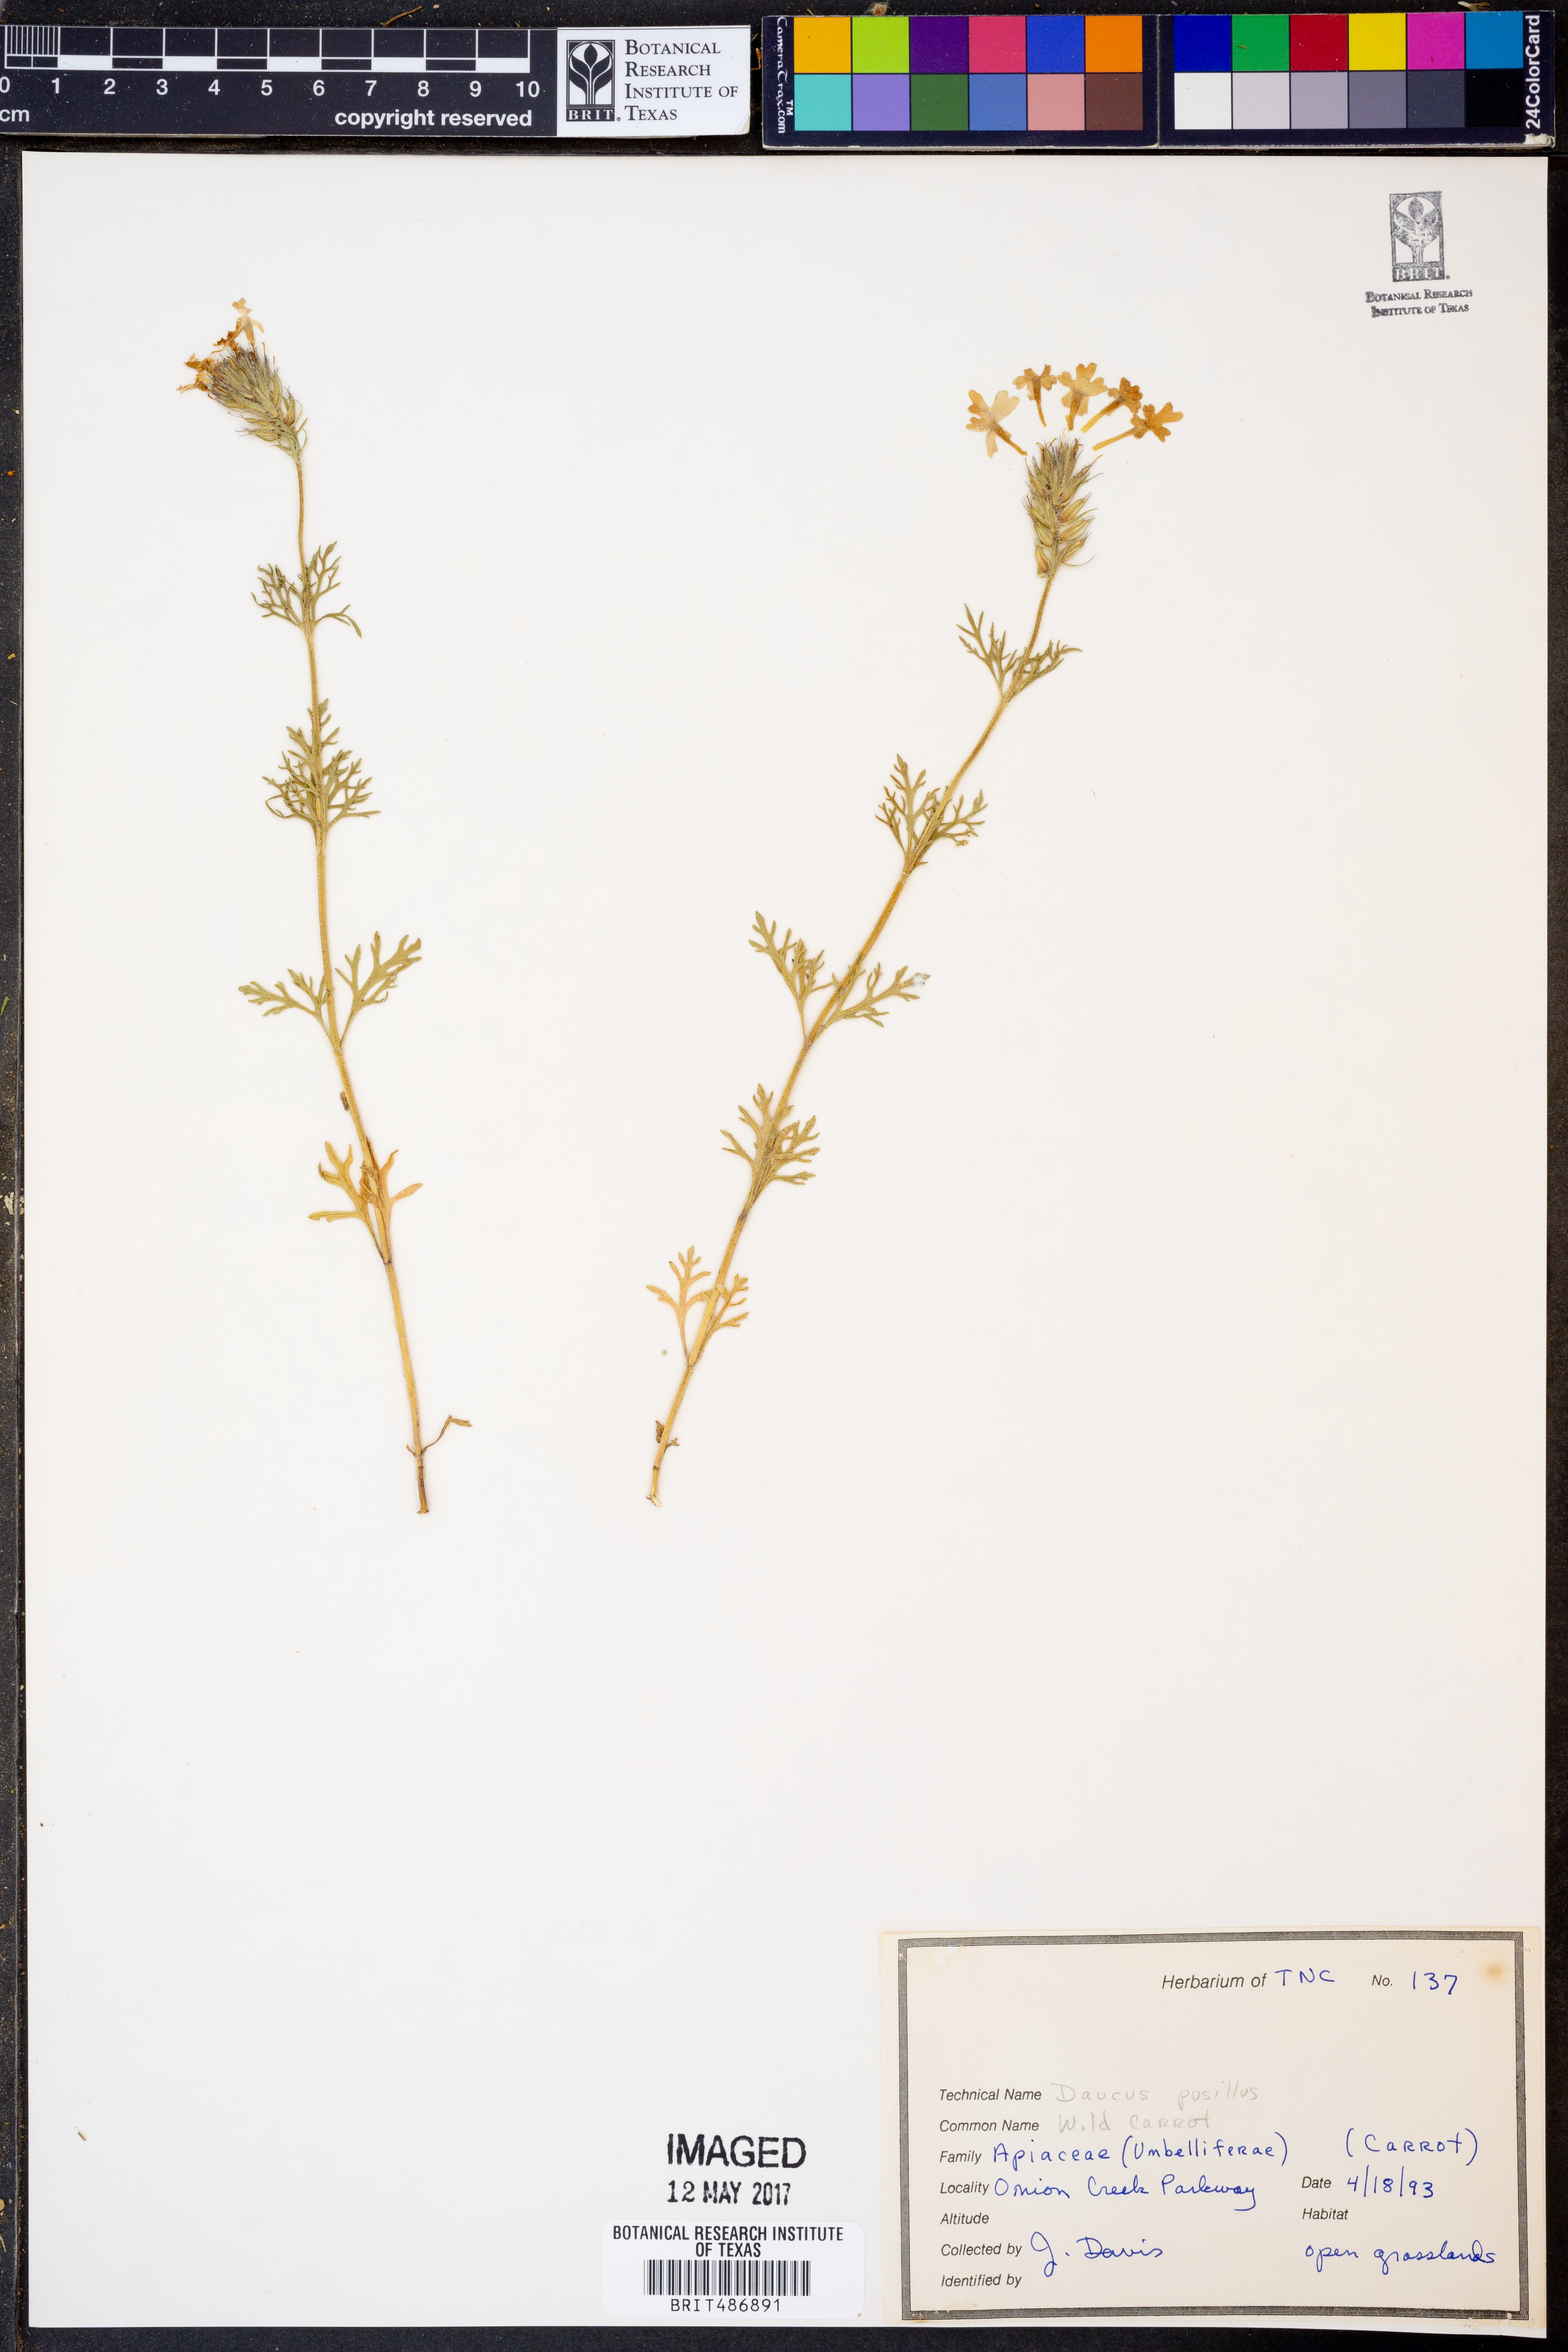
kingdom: Plantae
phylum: Tracheophyta
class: Magnoliopsida
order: Apiales
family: Apiaceae
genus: Daucus
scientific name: Daucus pusillus
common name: Southwest wild carrot
